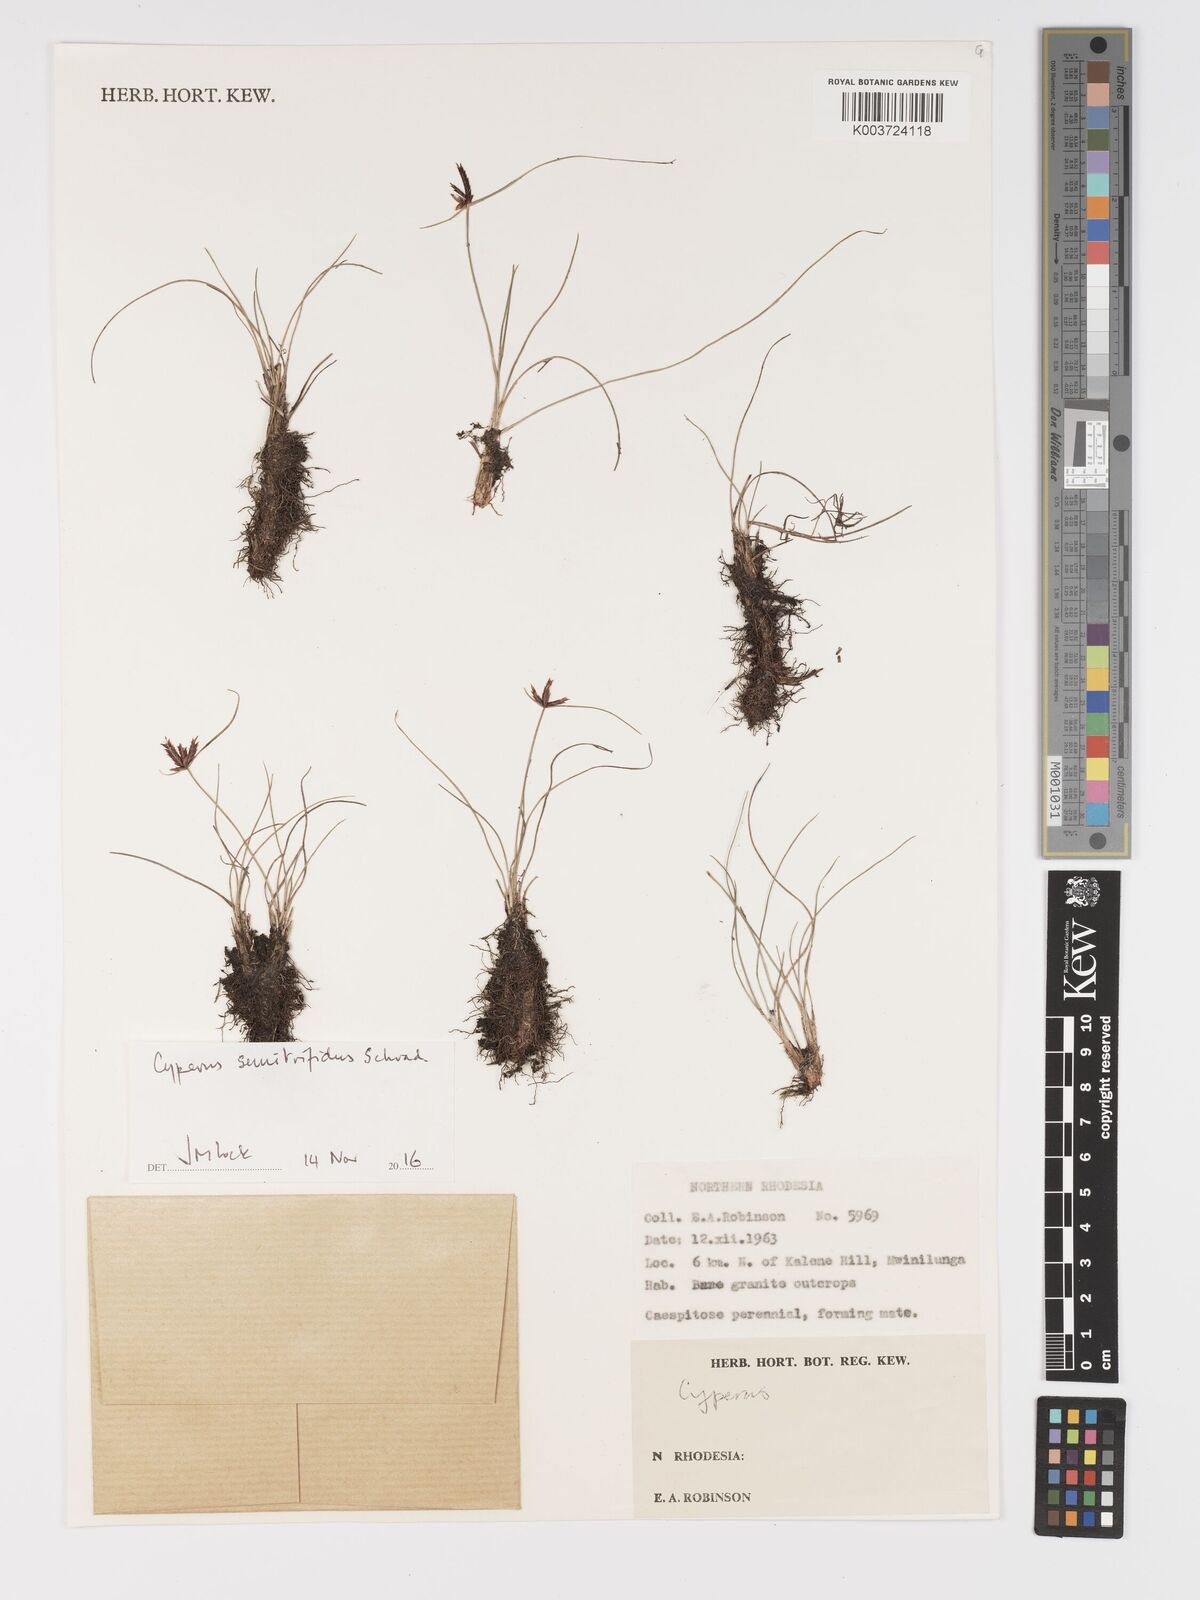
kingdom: Plantae
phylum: Tracheophyta
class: Liliopsida
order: Poales
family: Cyperaceae
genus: Cyperus
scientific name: Cyperus semitrifidus
